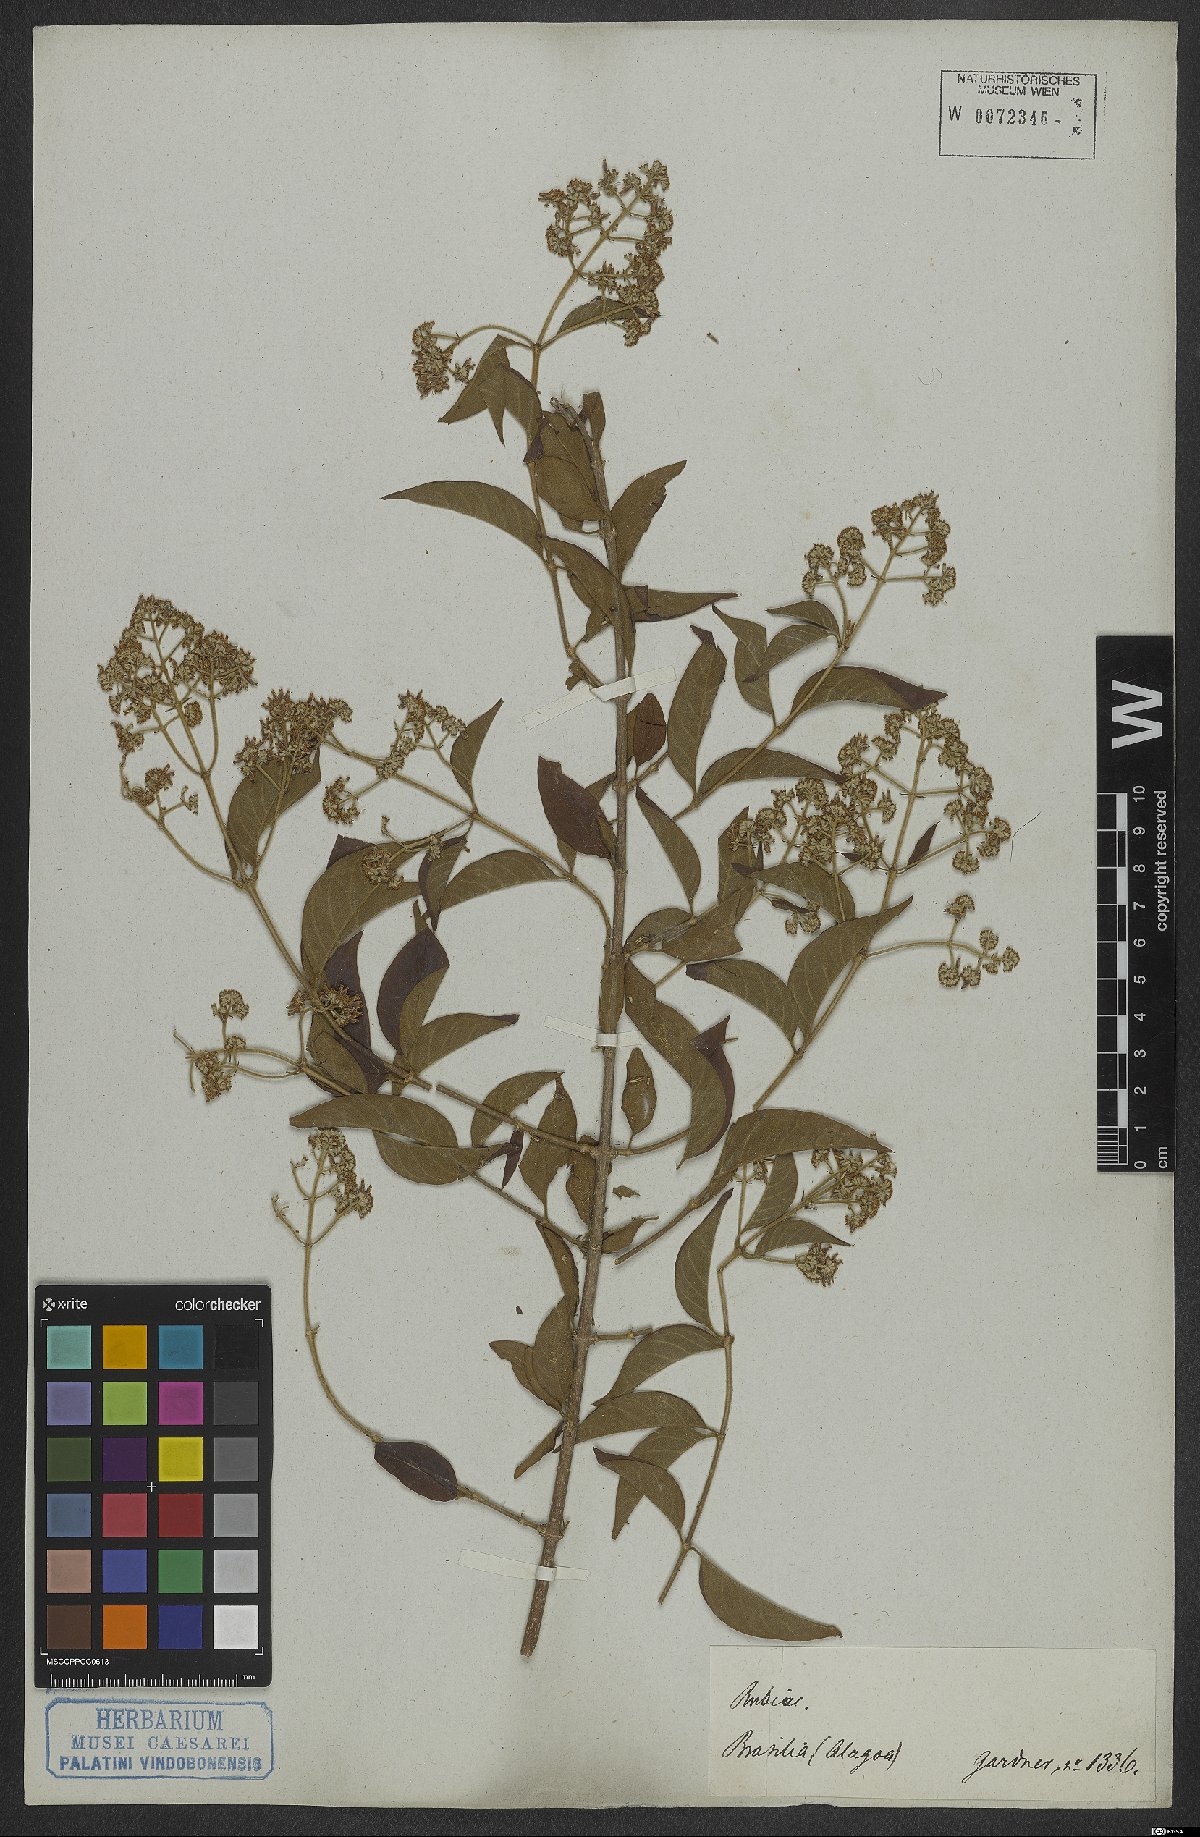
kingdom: Plantae
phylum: Tracheophyta
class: Magnoliopsida
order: Gentianales
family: Rubiaceae
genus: Machaonia
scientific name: Machaonia
